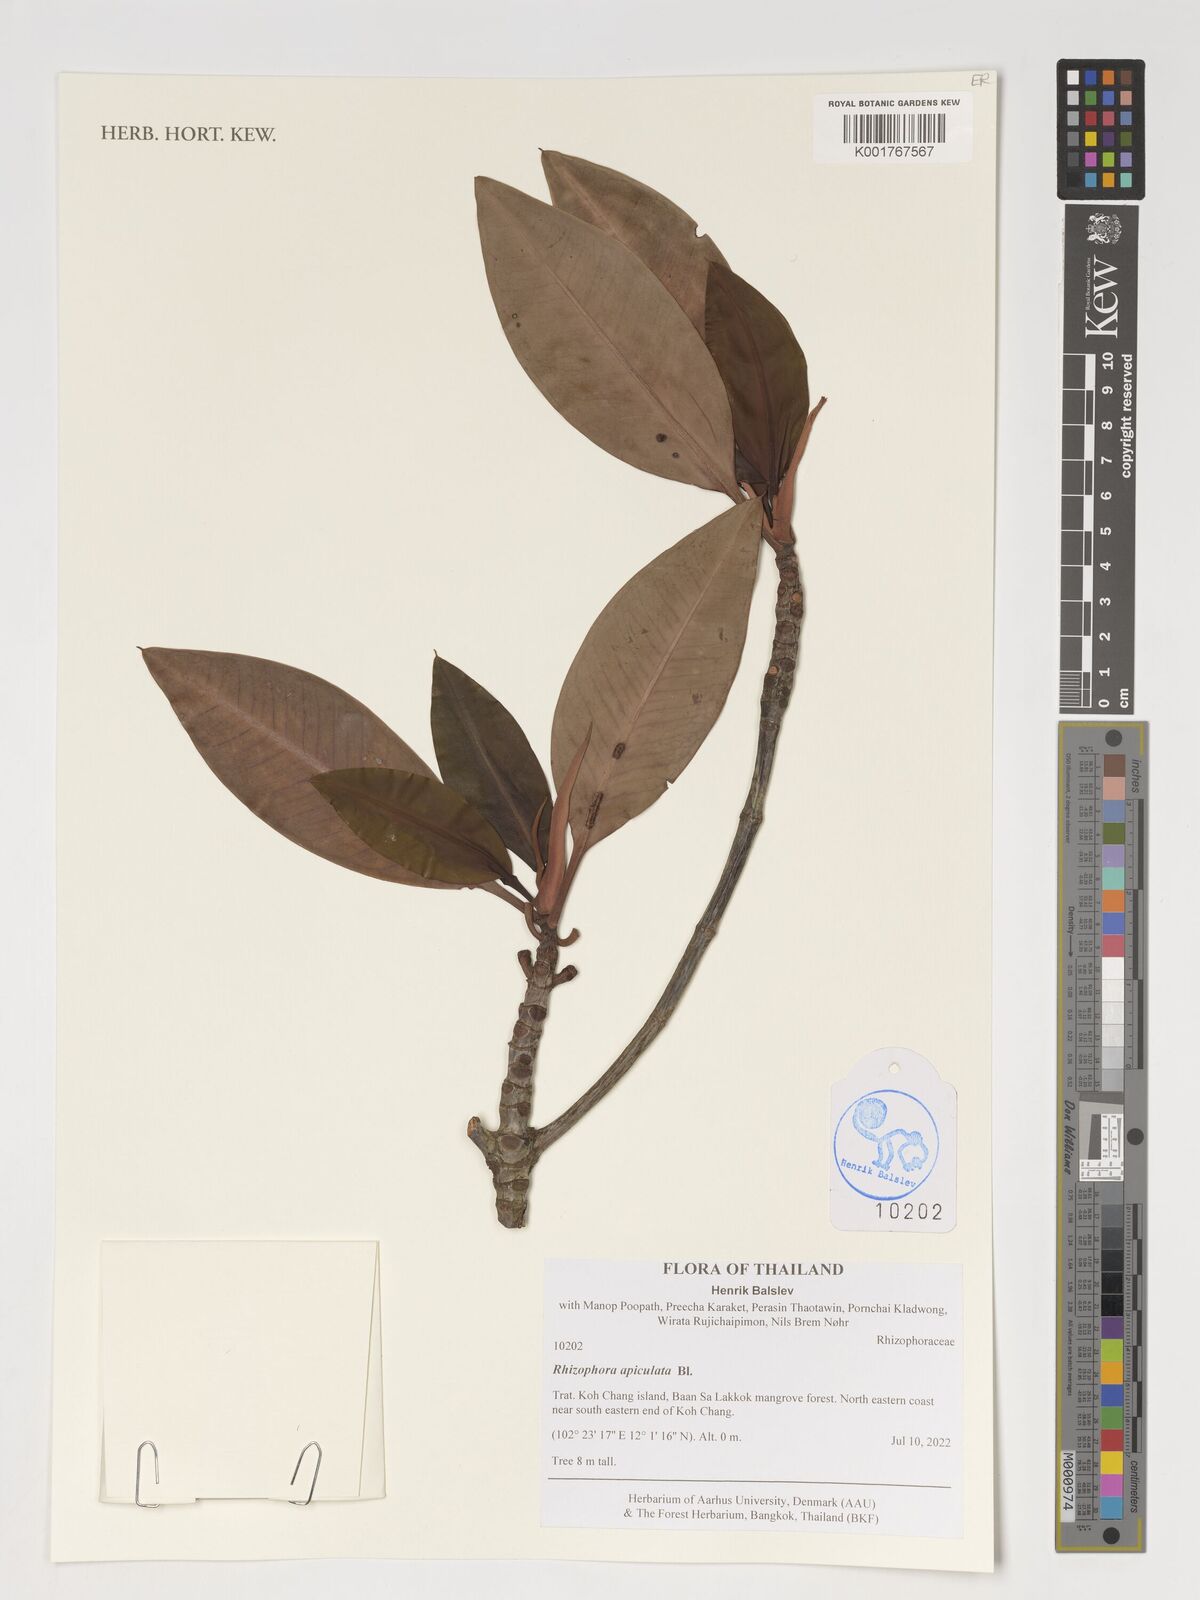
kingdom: Plantae
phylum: Tracheophyta
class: Magnoliopsida
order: Malpighiales
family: Rhizophoraceae
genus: Rhizophora
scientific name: Rhizophora apiculata
